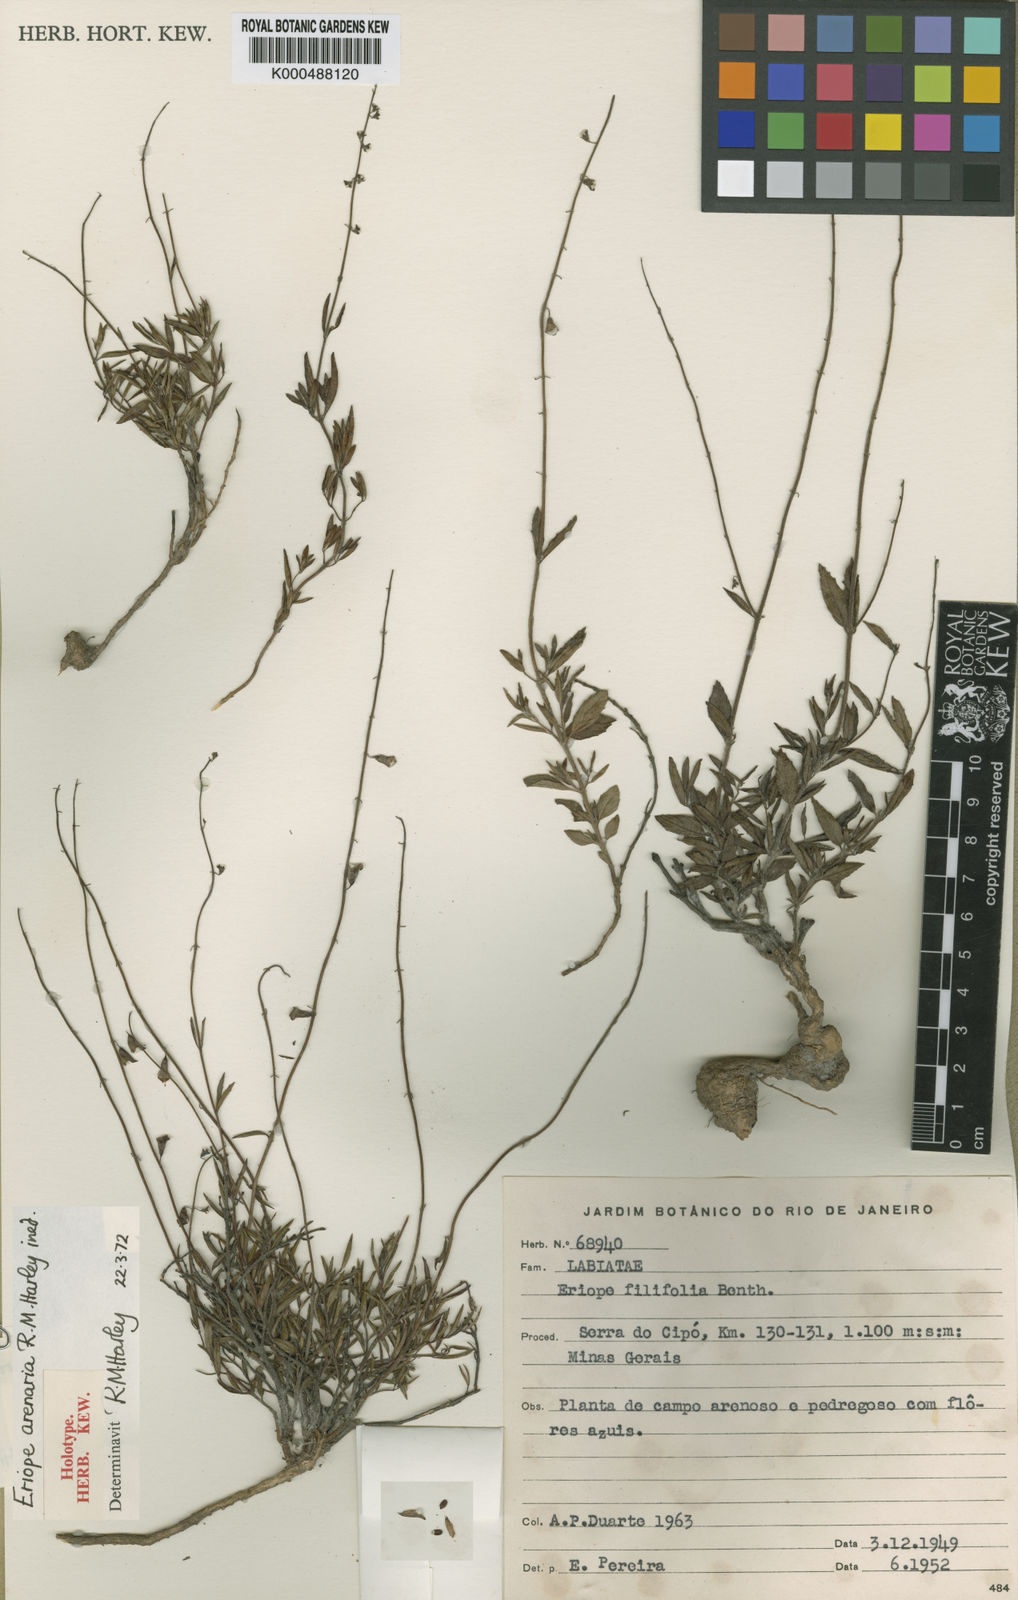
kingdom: Plantae
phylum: Tracheophyta
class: Magnoliopsida
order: Lamiales
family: Lamiaceae
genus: Eriope
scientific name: Eriope arenaria
